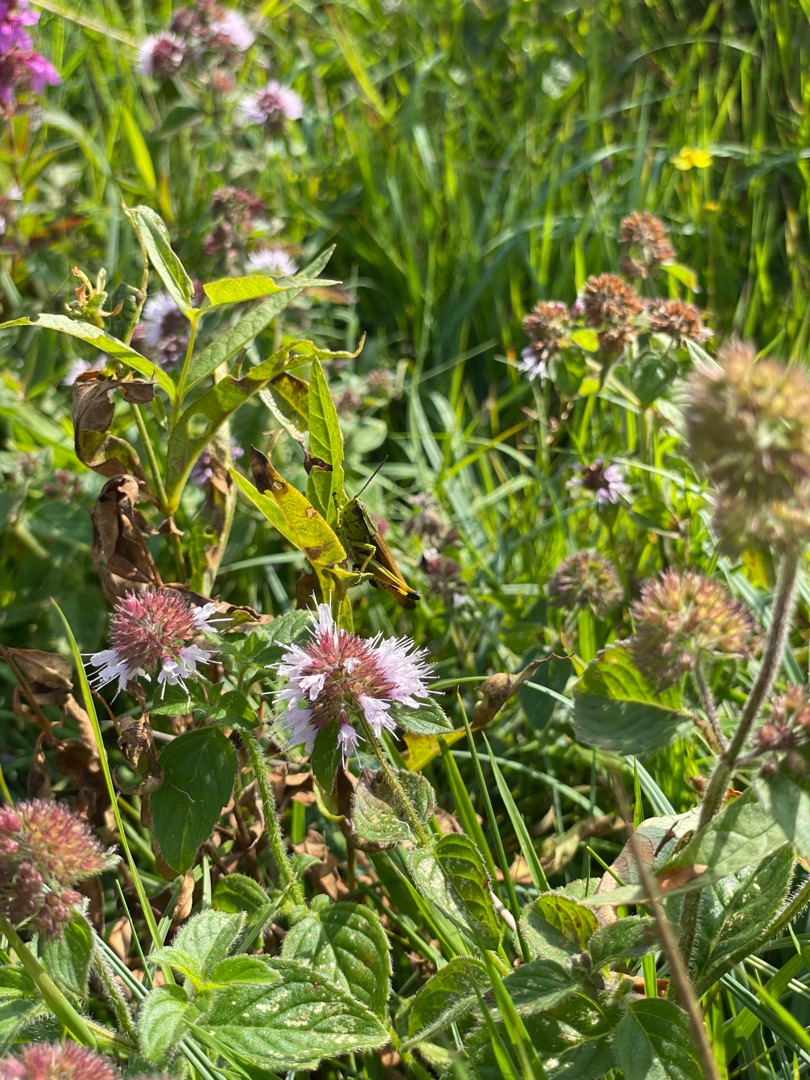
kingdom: Plantae
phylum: Tracheophyta
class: Magnoliopsida
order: Lamiales
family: Lamiaceae
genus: Mentha
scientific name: Mentha aquatica
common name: Vand-mynte
